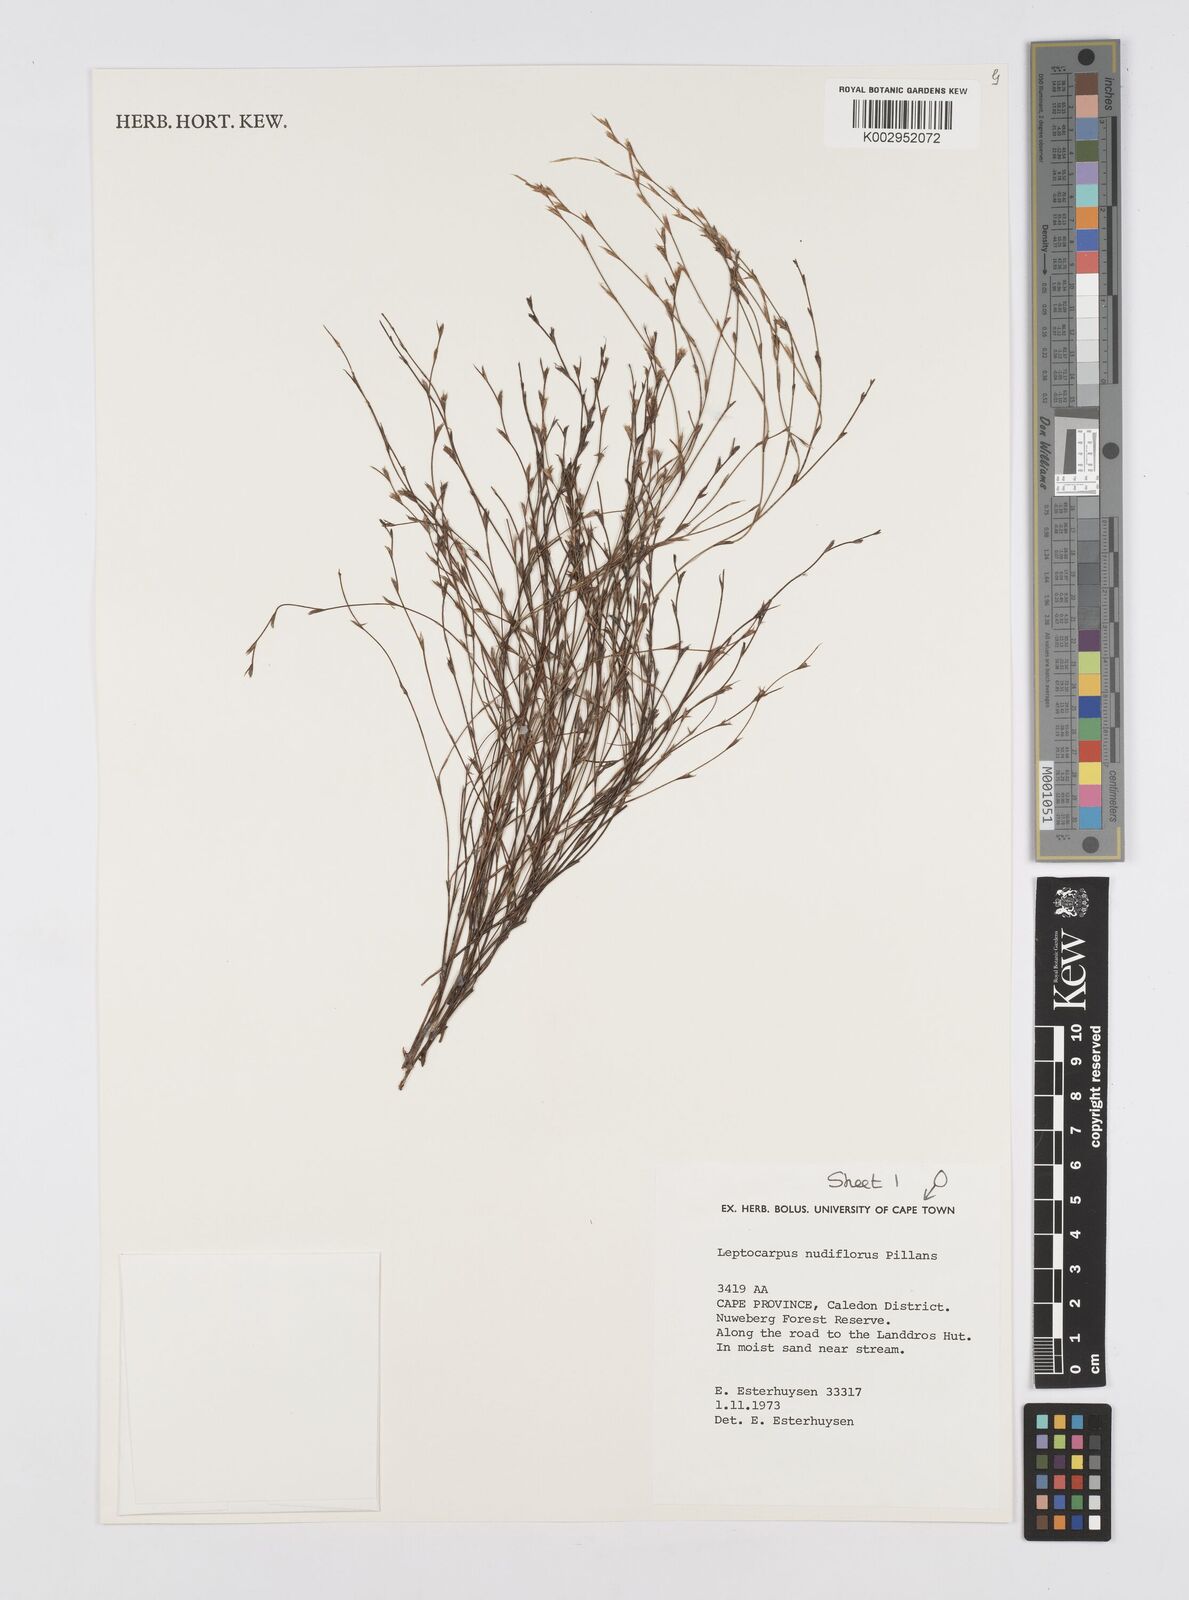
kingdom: Plantae
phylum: Tracheophyta
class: Liliopsida
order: Poales
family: Restionaceae
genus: Restio
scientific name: Restio nudiflorus
